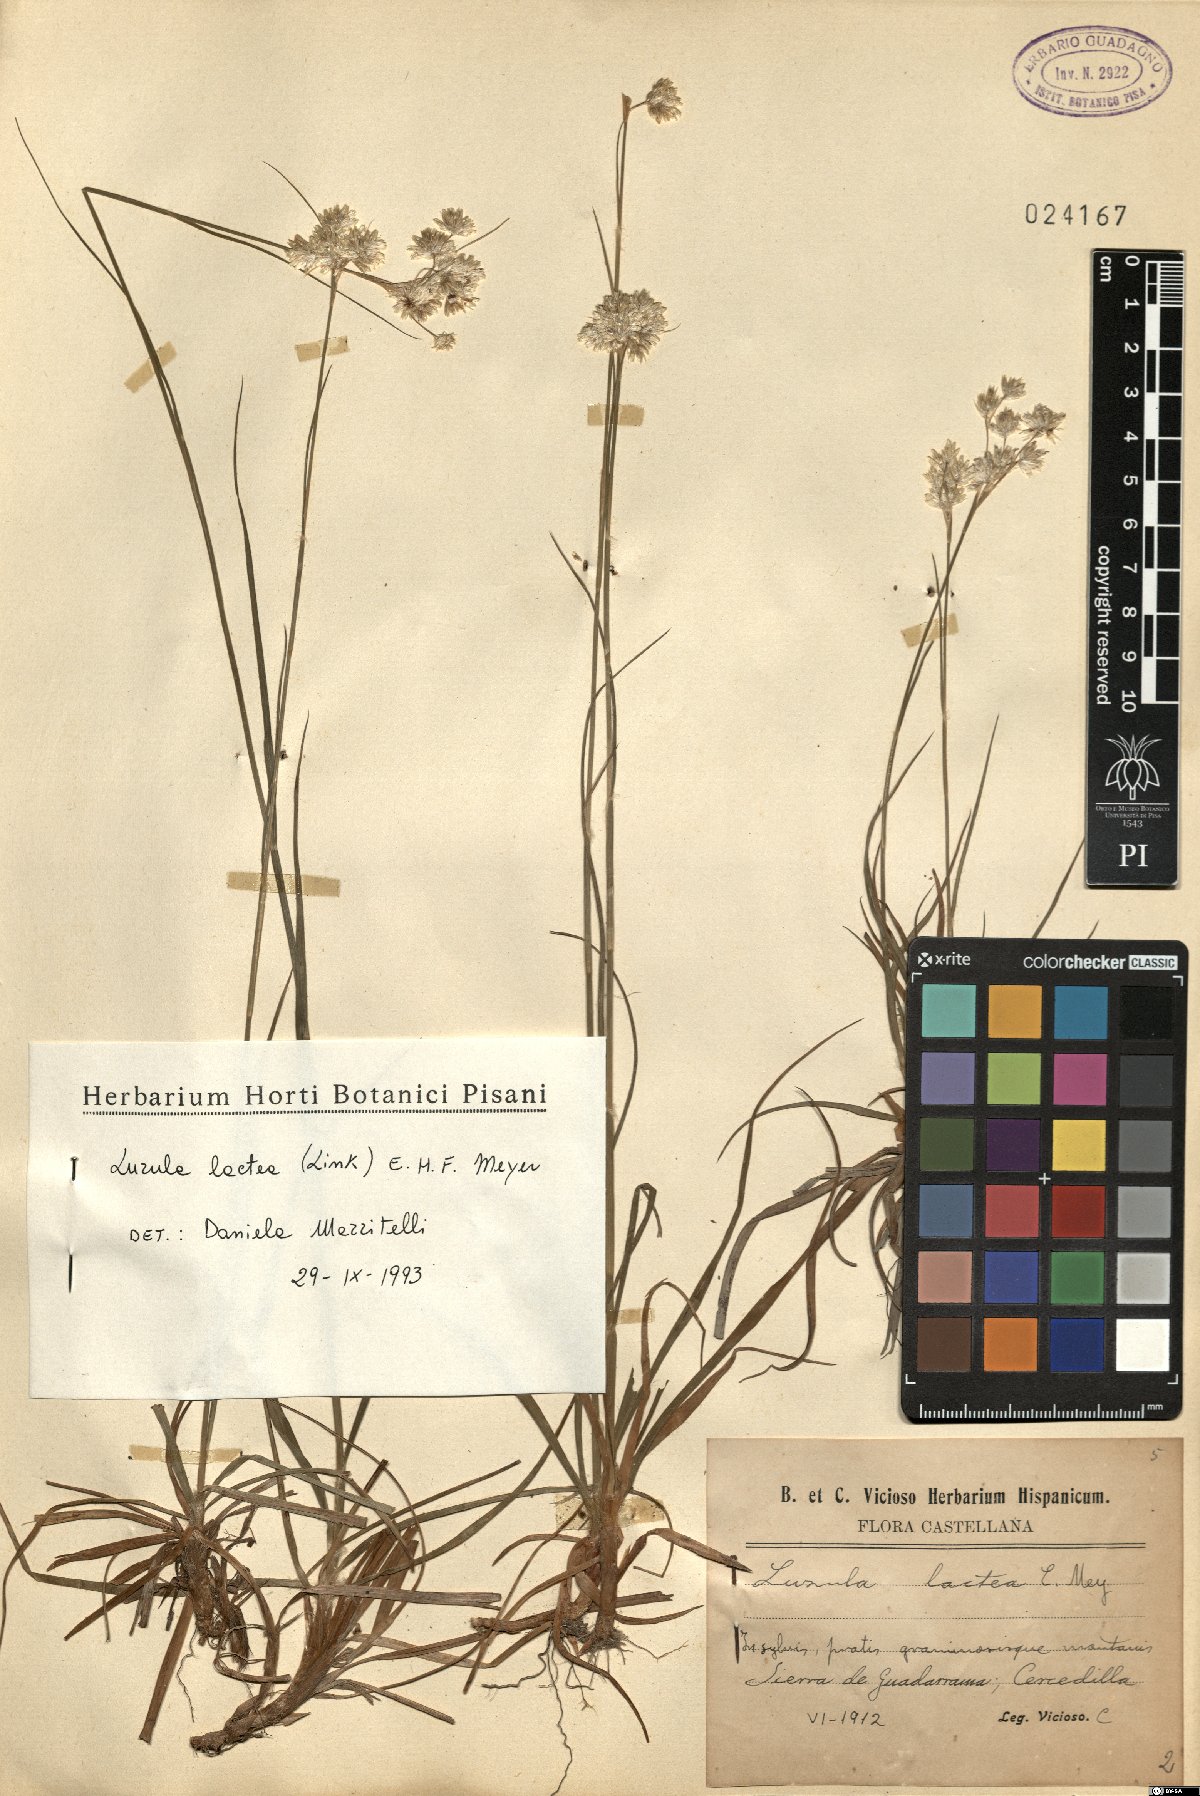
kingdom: Plantae
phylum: Tracheophyta
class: Liliopsida
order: Poales
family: Juncaceae
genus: Luzula
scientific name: Luzula lactea
